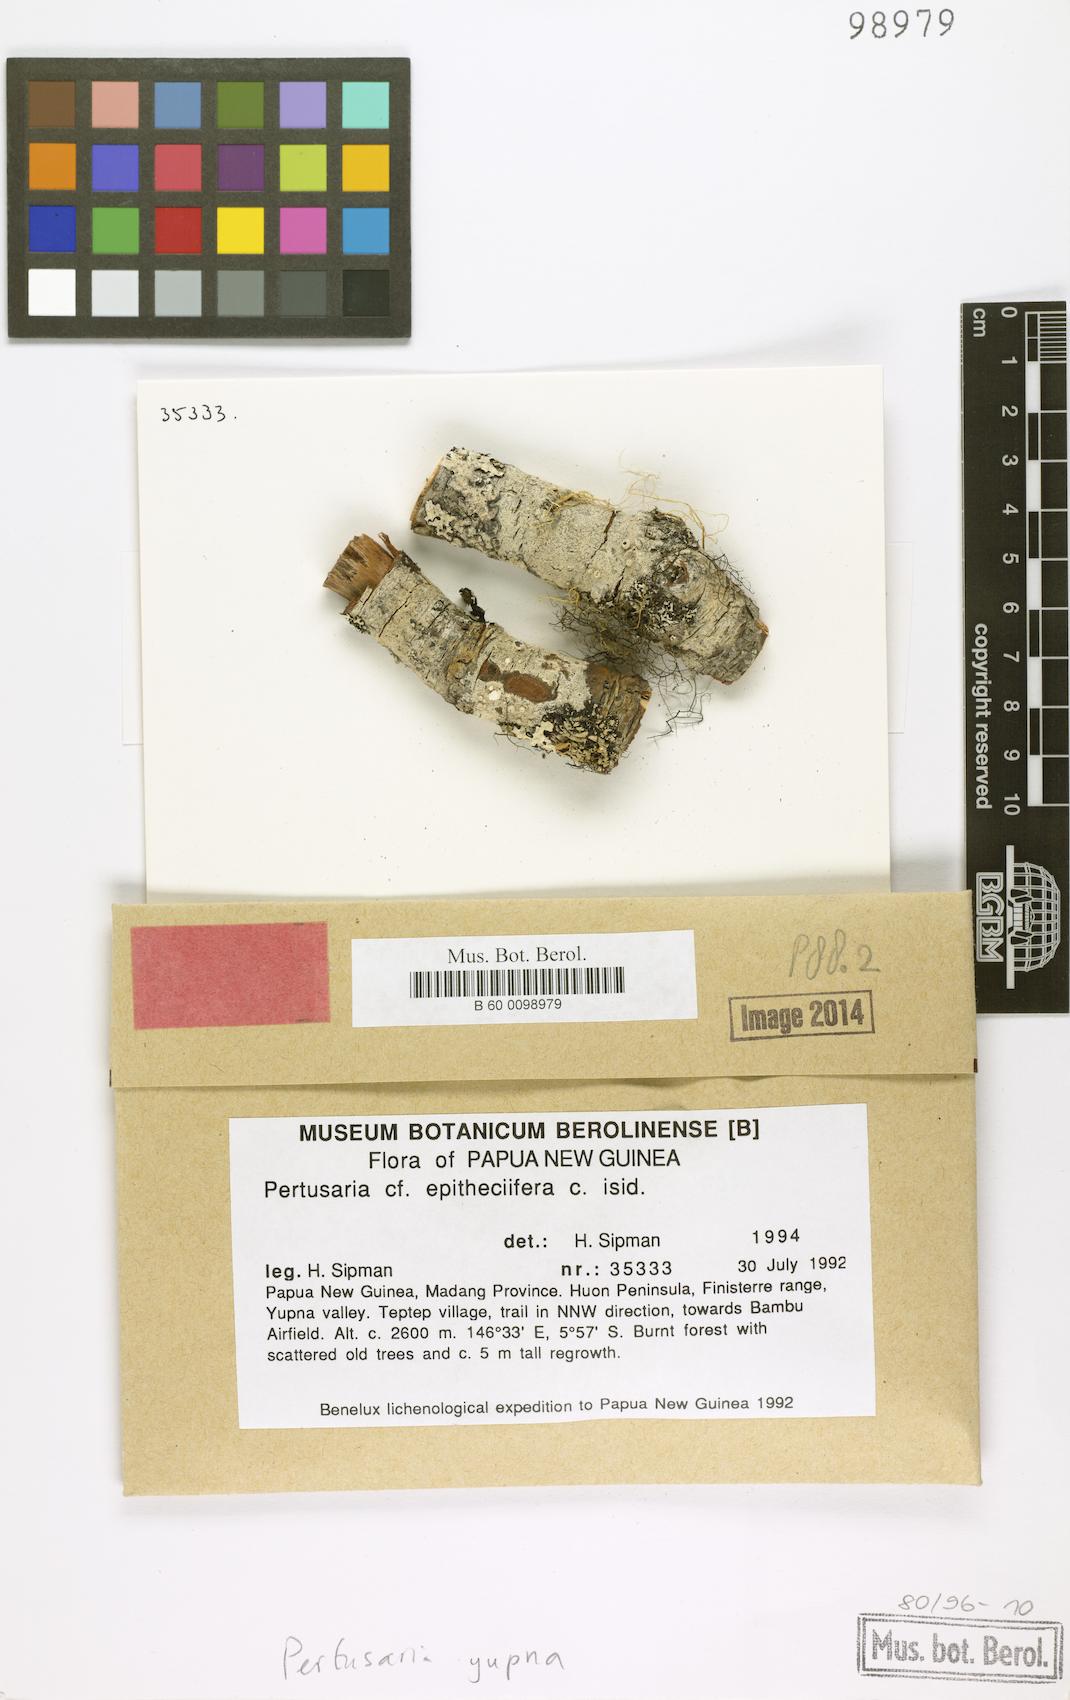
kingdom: Fungi
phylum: Ascomycota
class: Lecanoromycetes
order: Pertusariales
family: Pertusariaceae
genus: Pertusaria
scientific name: Pertusaria
